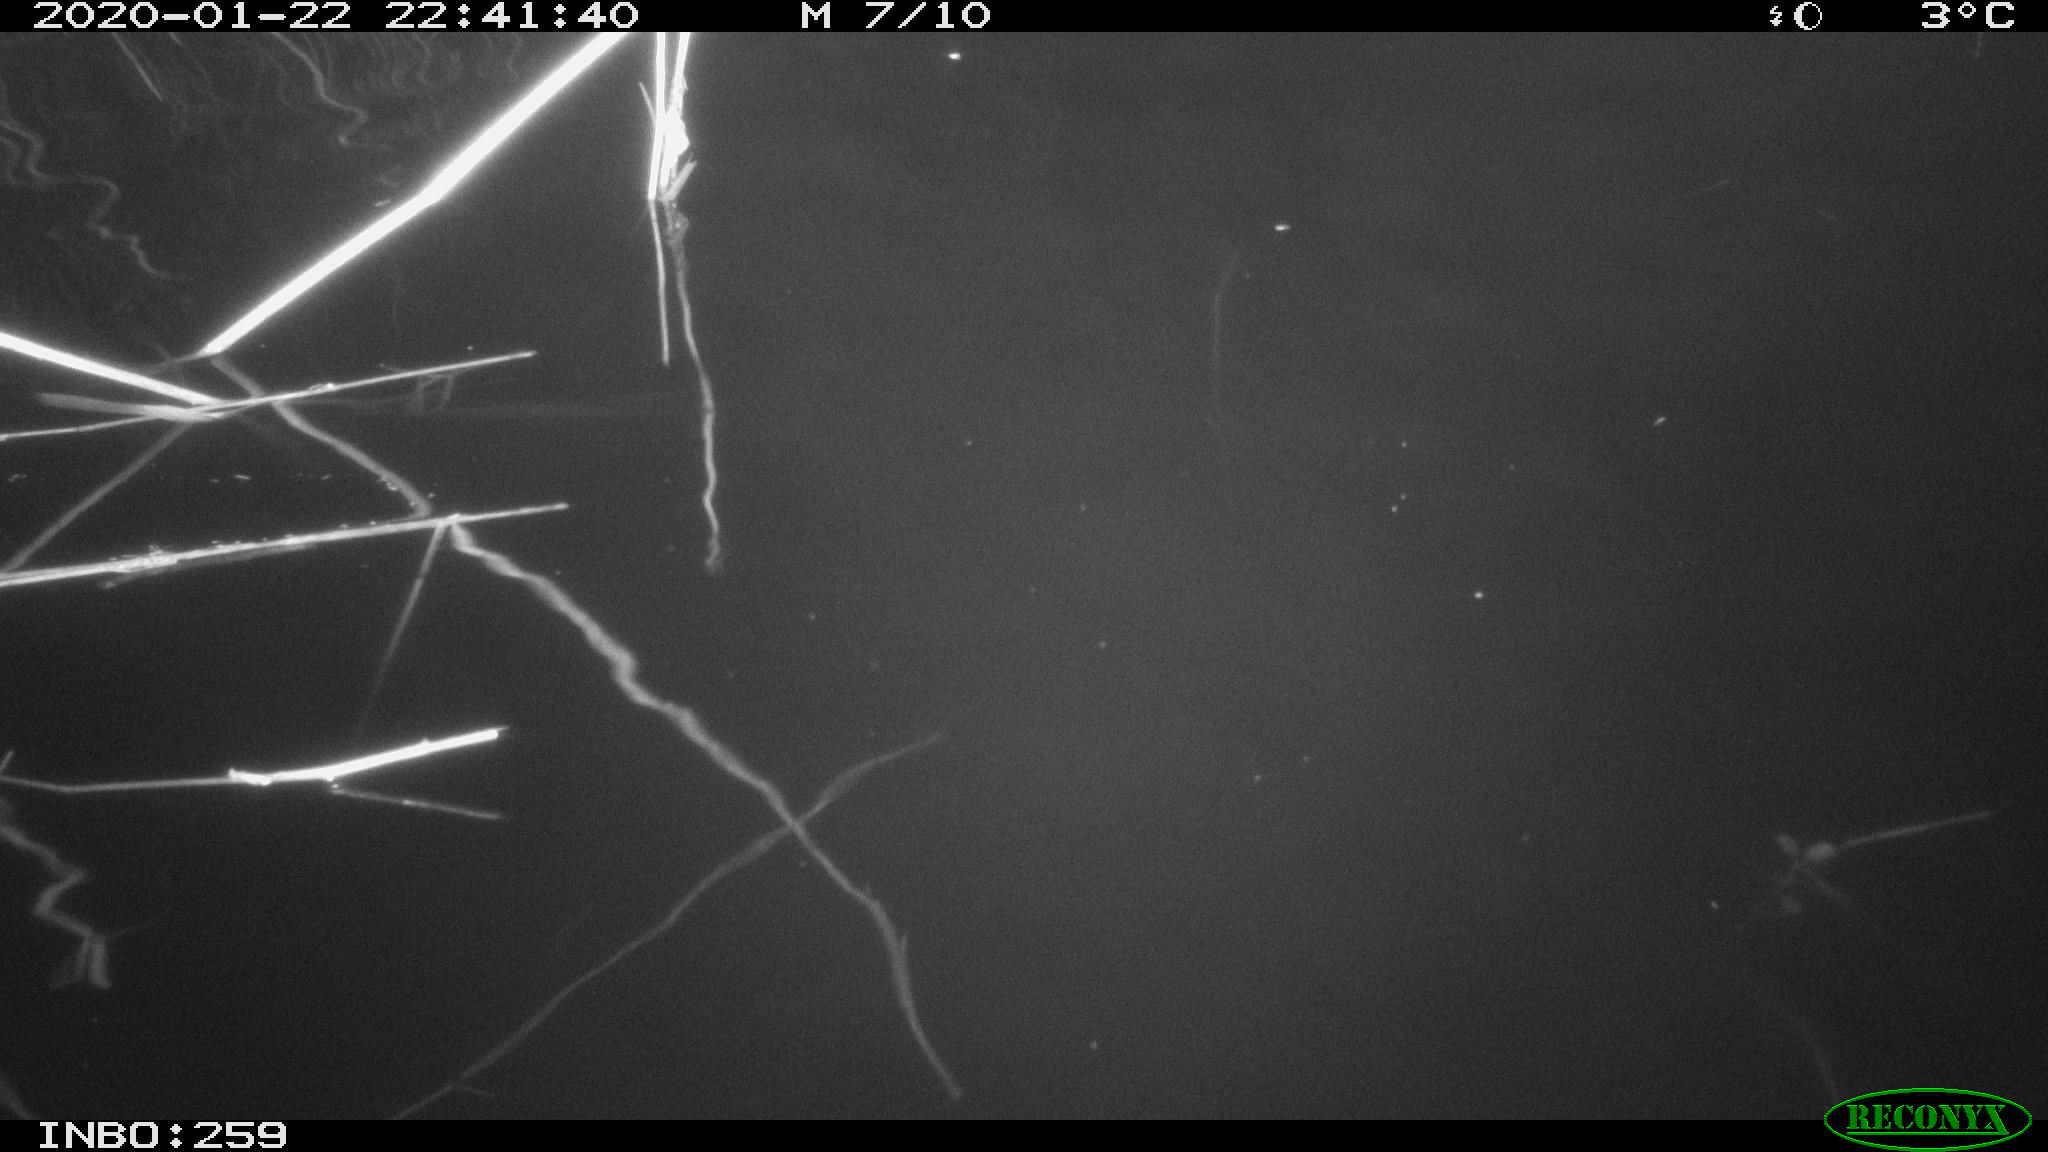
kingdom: Animalia
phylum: Chordata
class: Mammalia
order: Rodentia
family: Cricetidae
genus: Ondatra
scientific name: Ondatra zibethicus
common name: Muskrat
